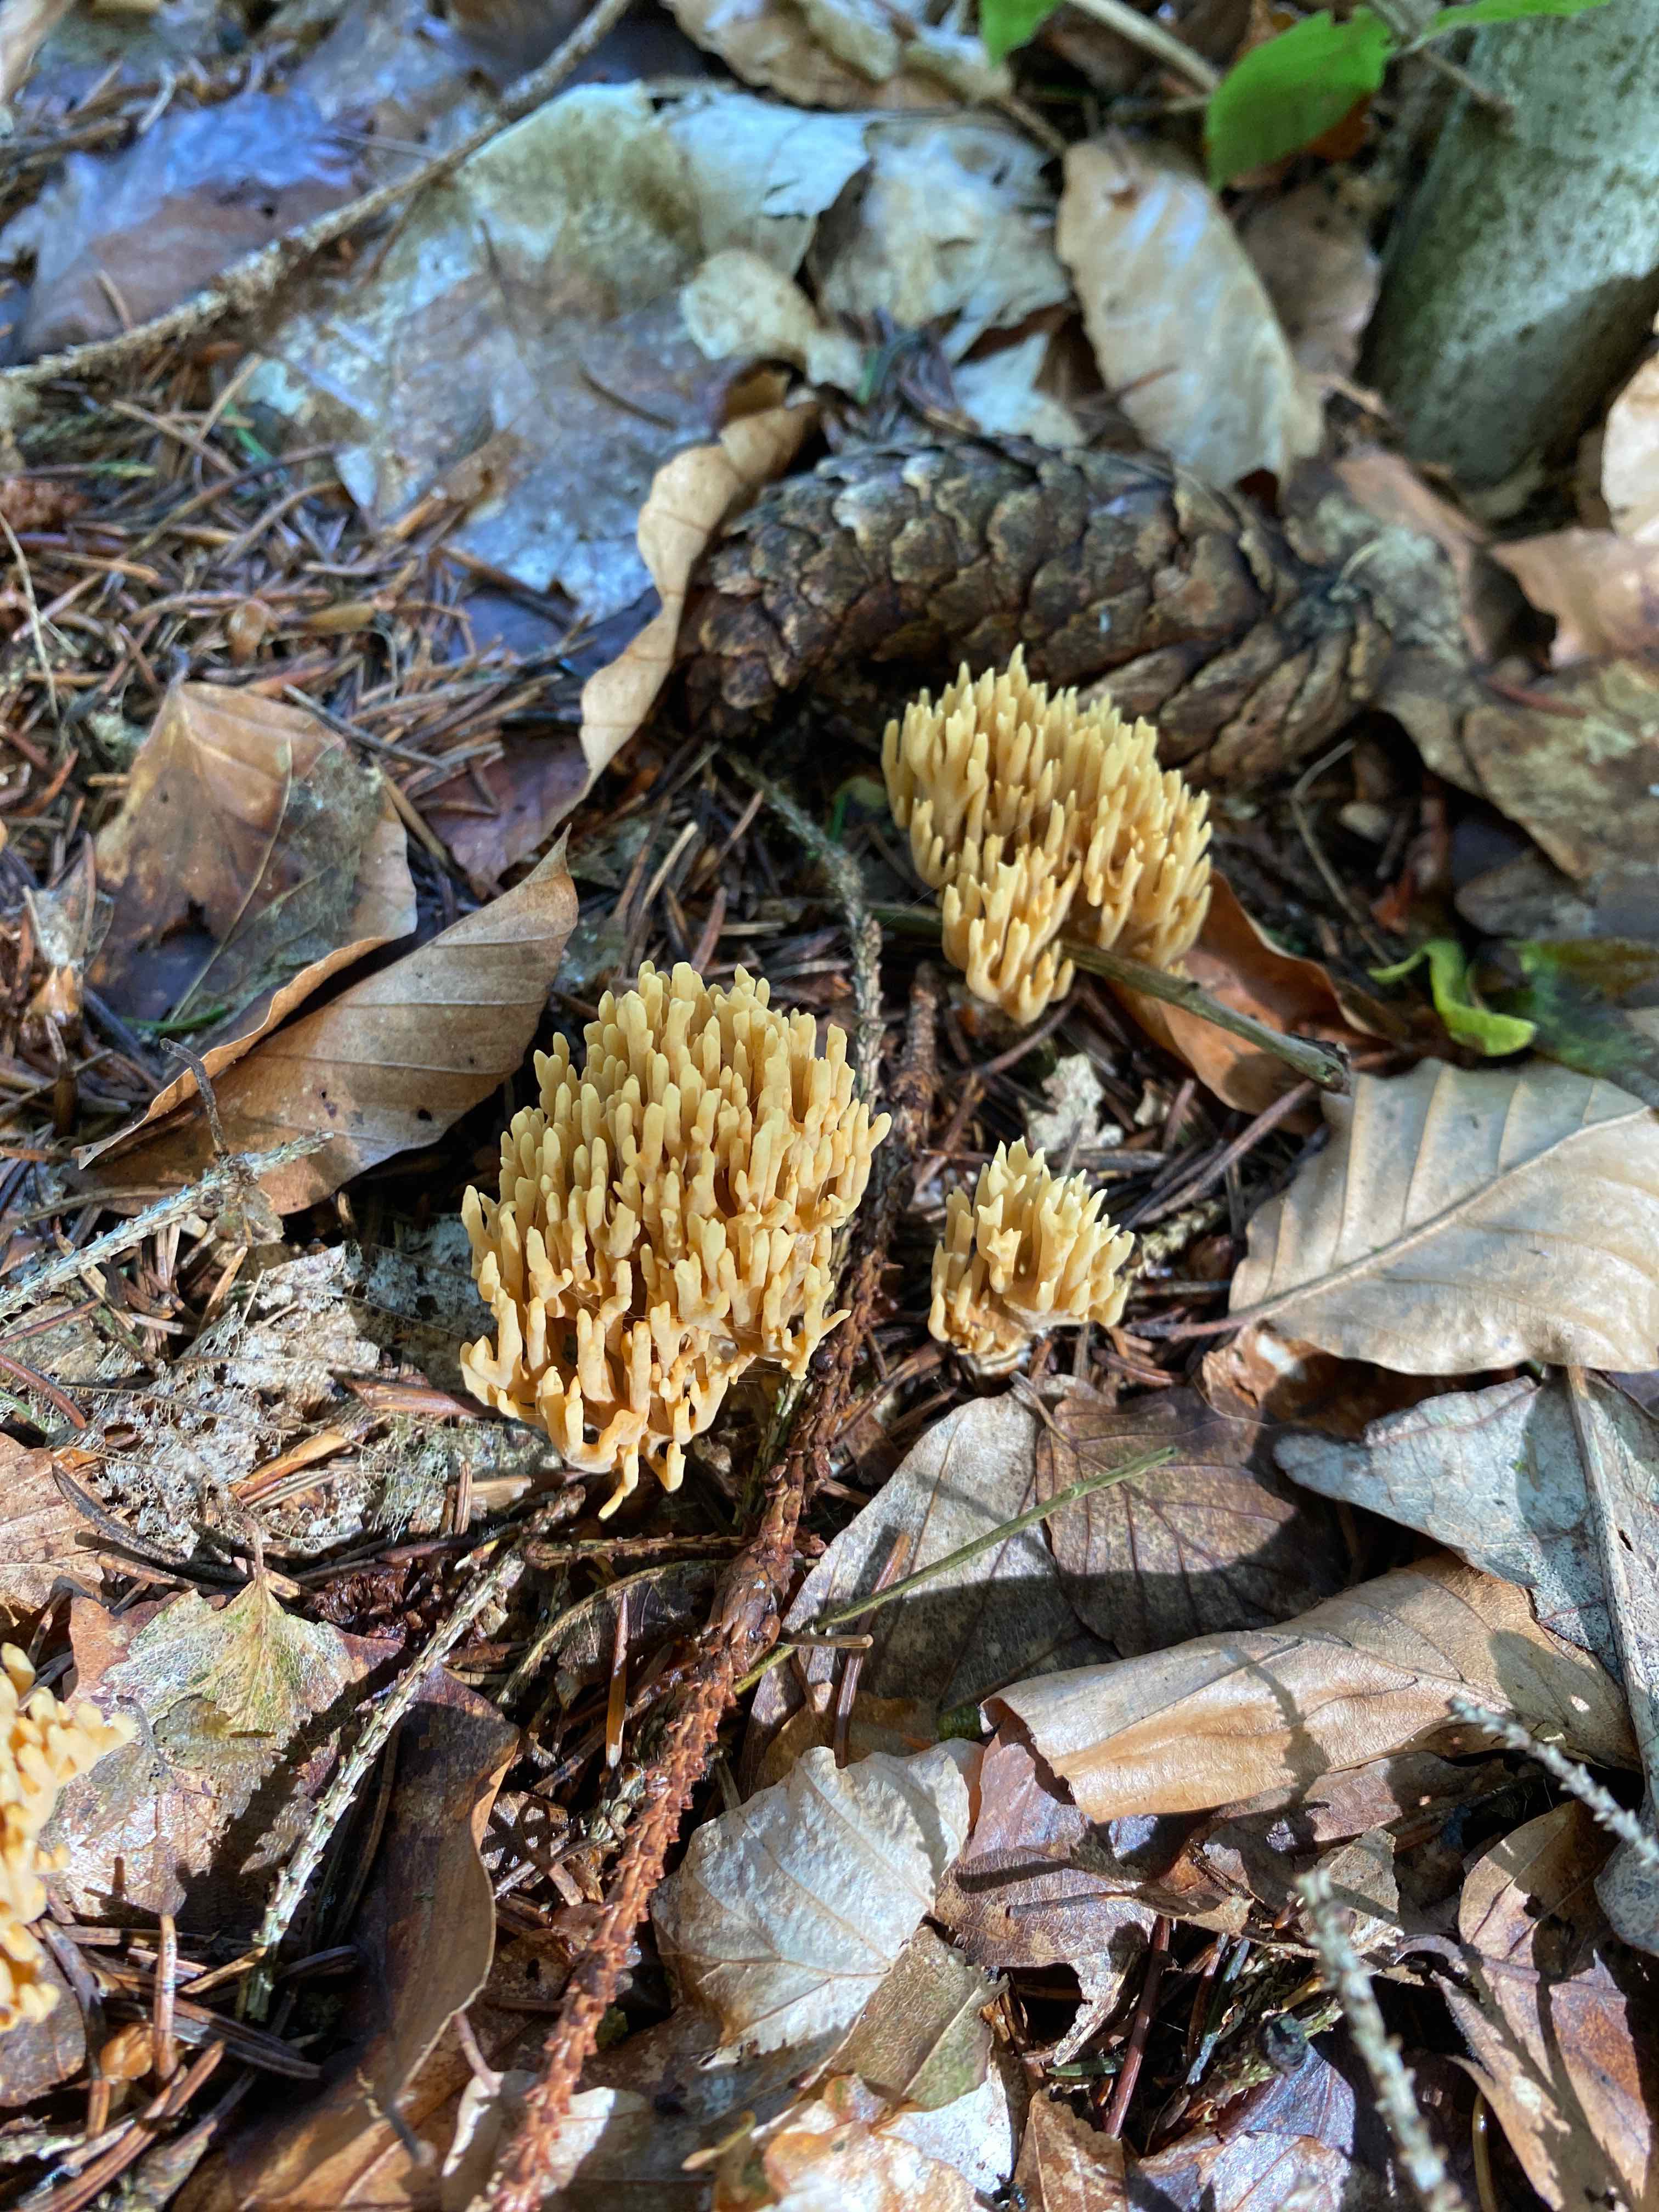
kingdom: Fungi
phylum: Basidiomycota
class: Agaricomycetes
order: Gomphales
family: Gomphaceae
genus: Phaeoclavulina
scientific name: Phaeoclavulina eumorpha
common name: gran-koralsvamp
